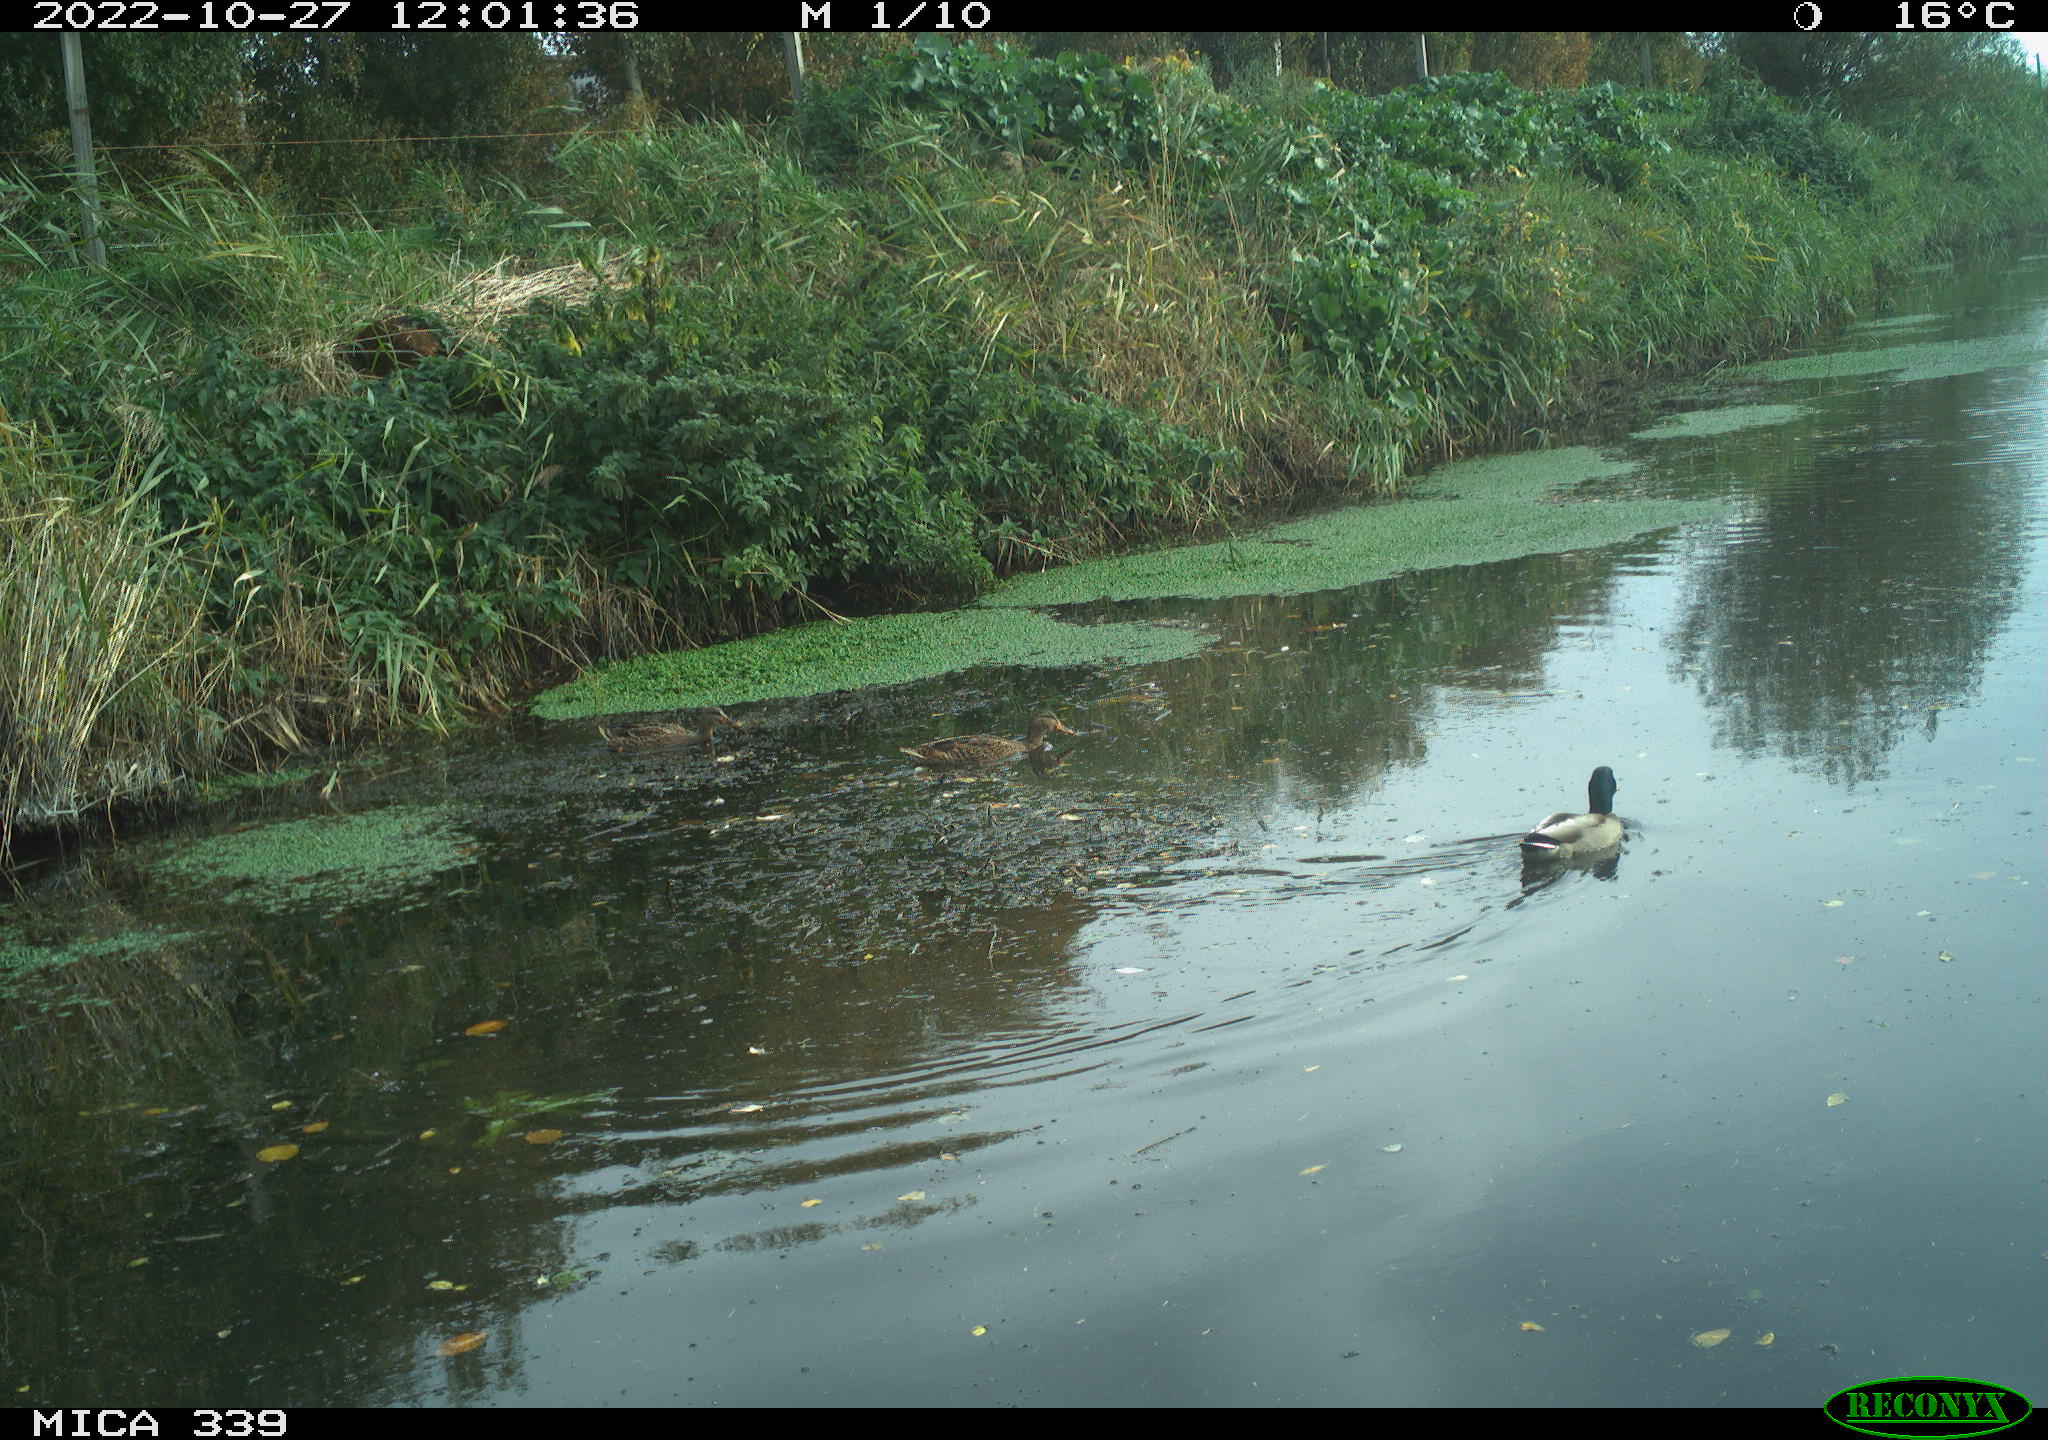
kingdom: Animalia
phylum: Chordata
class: Aves
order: Anseriformes
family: Anatidae
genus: Anas
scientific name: Anas platyrhynchos
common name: Mallard
